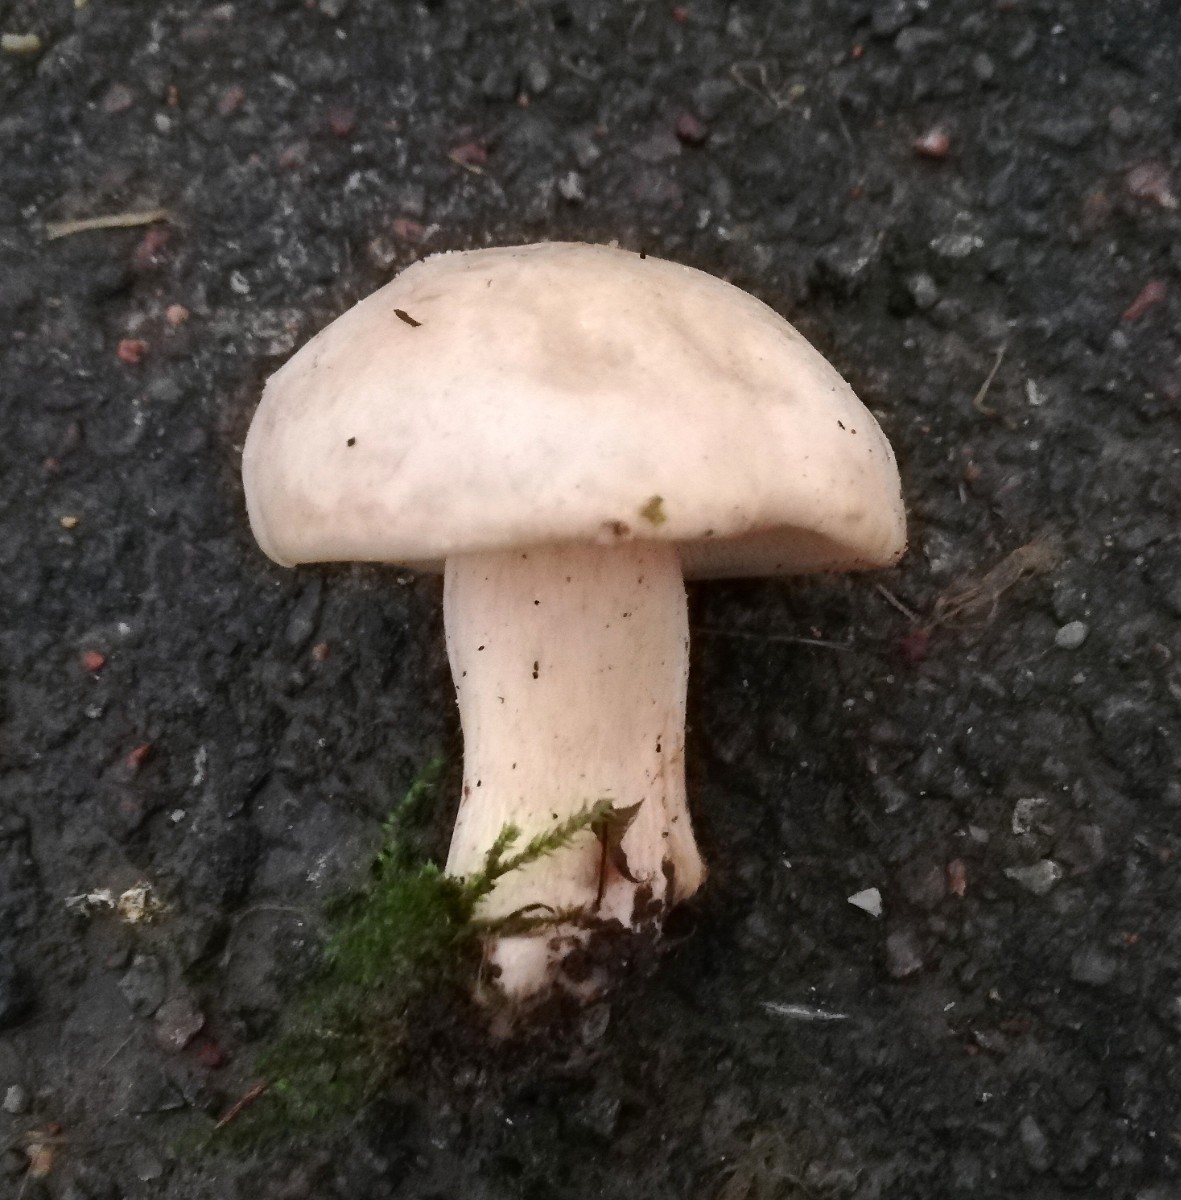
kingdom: Fungi
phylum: Basidiomycota
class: Agaricomycetes
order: Agaricales
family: Lyophyllaceae
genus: Calocybe
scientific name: Calocybe gambosa
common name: vårmusseron
